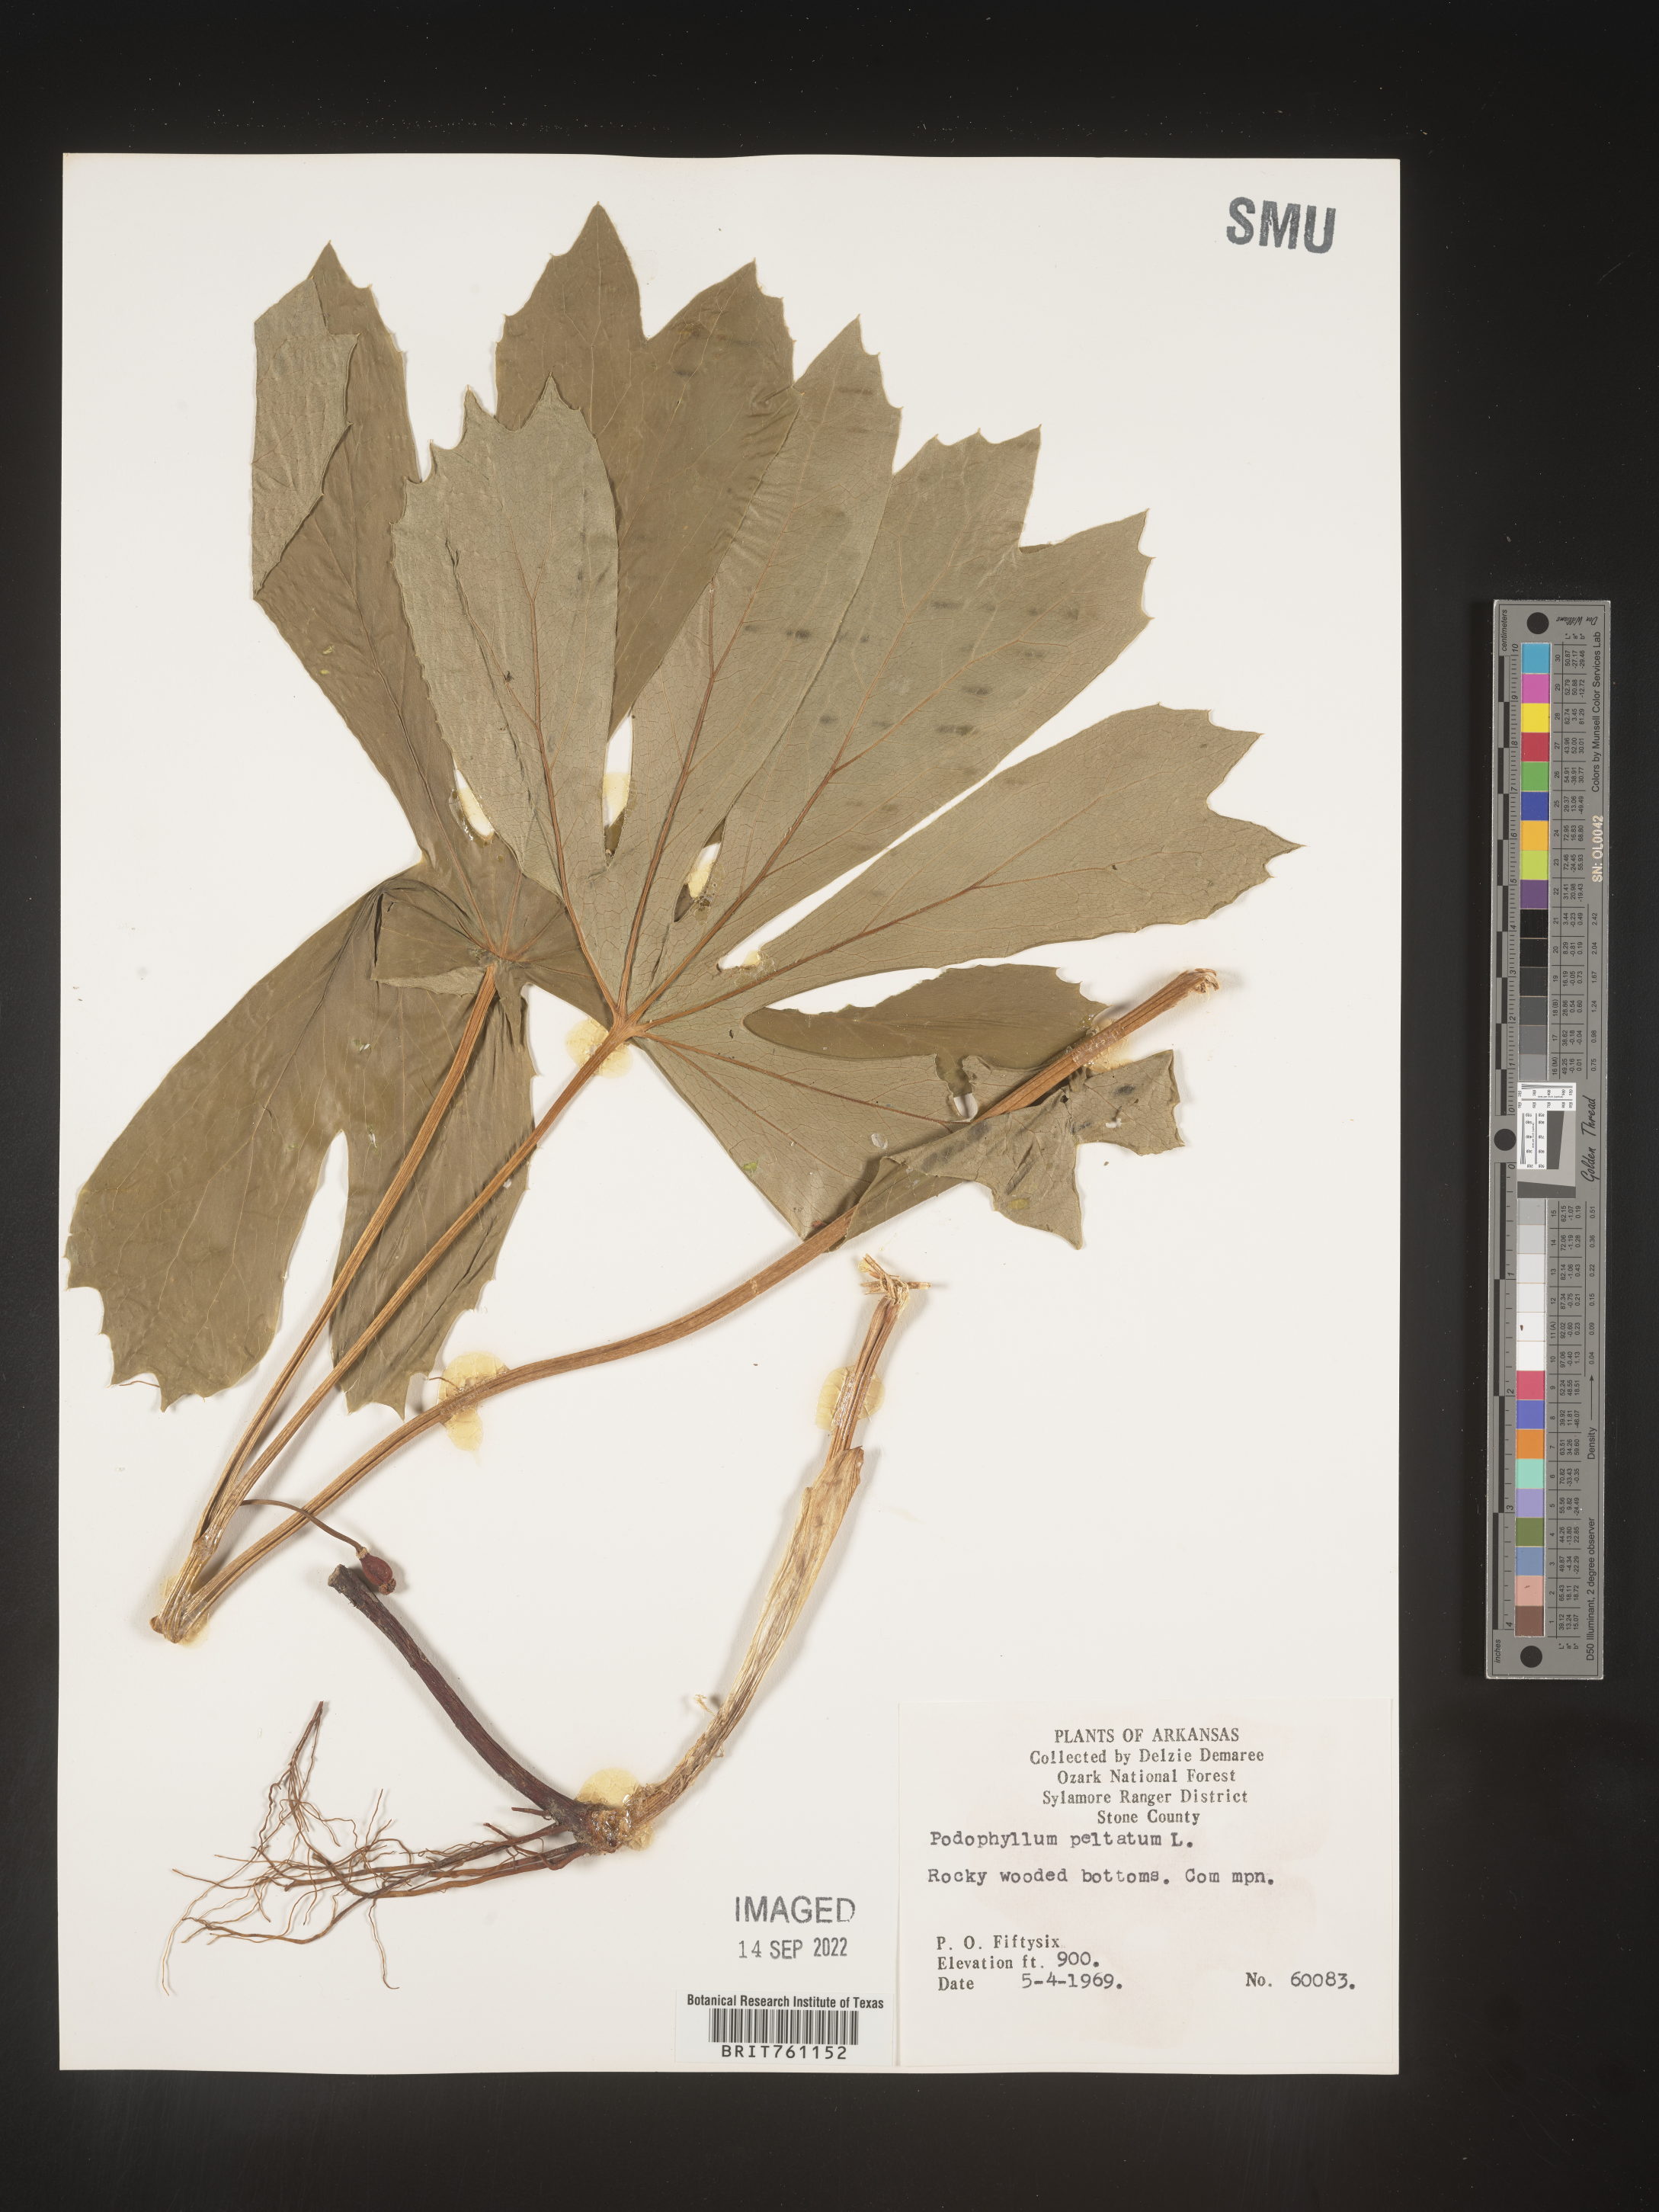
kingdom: Plantae
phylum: Tracheophyta
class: Magnoliopsida
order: Ranunculales
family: Berberidaceae
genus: Podophyllum
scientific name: Podophyllum peltatum
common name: Wild mandrake
